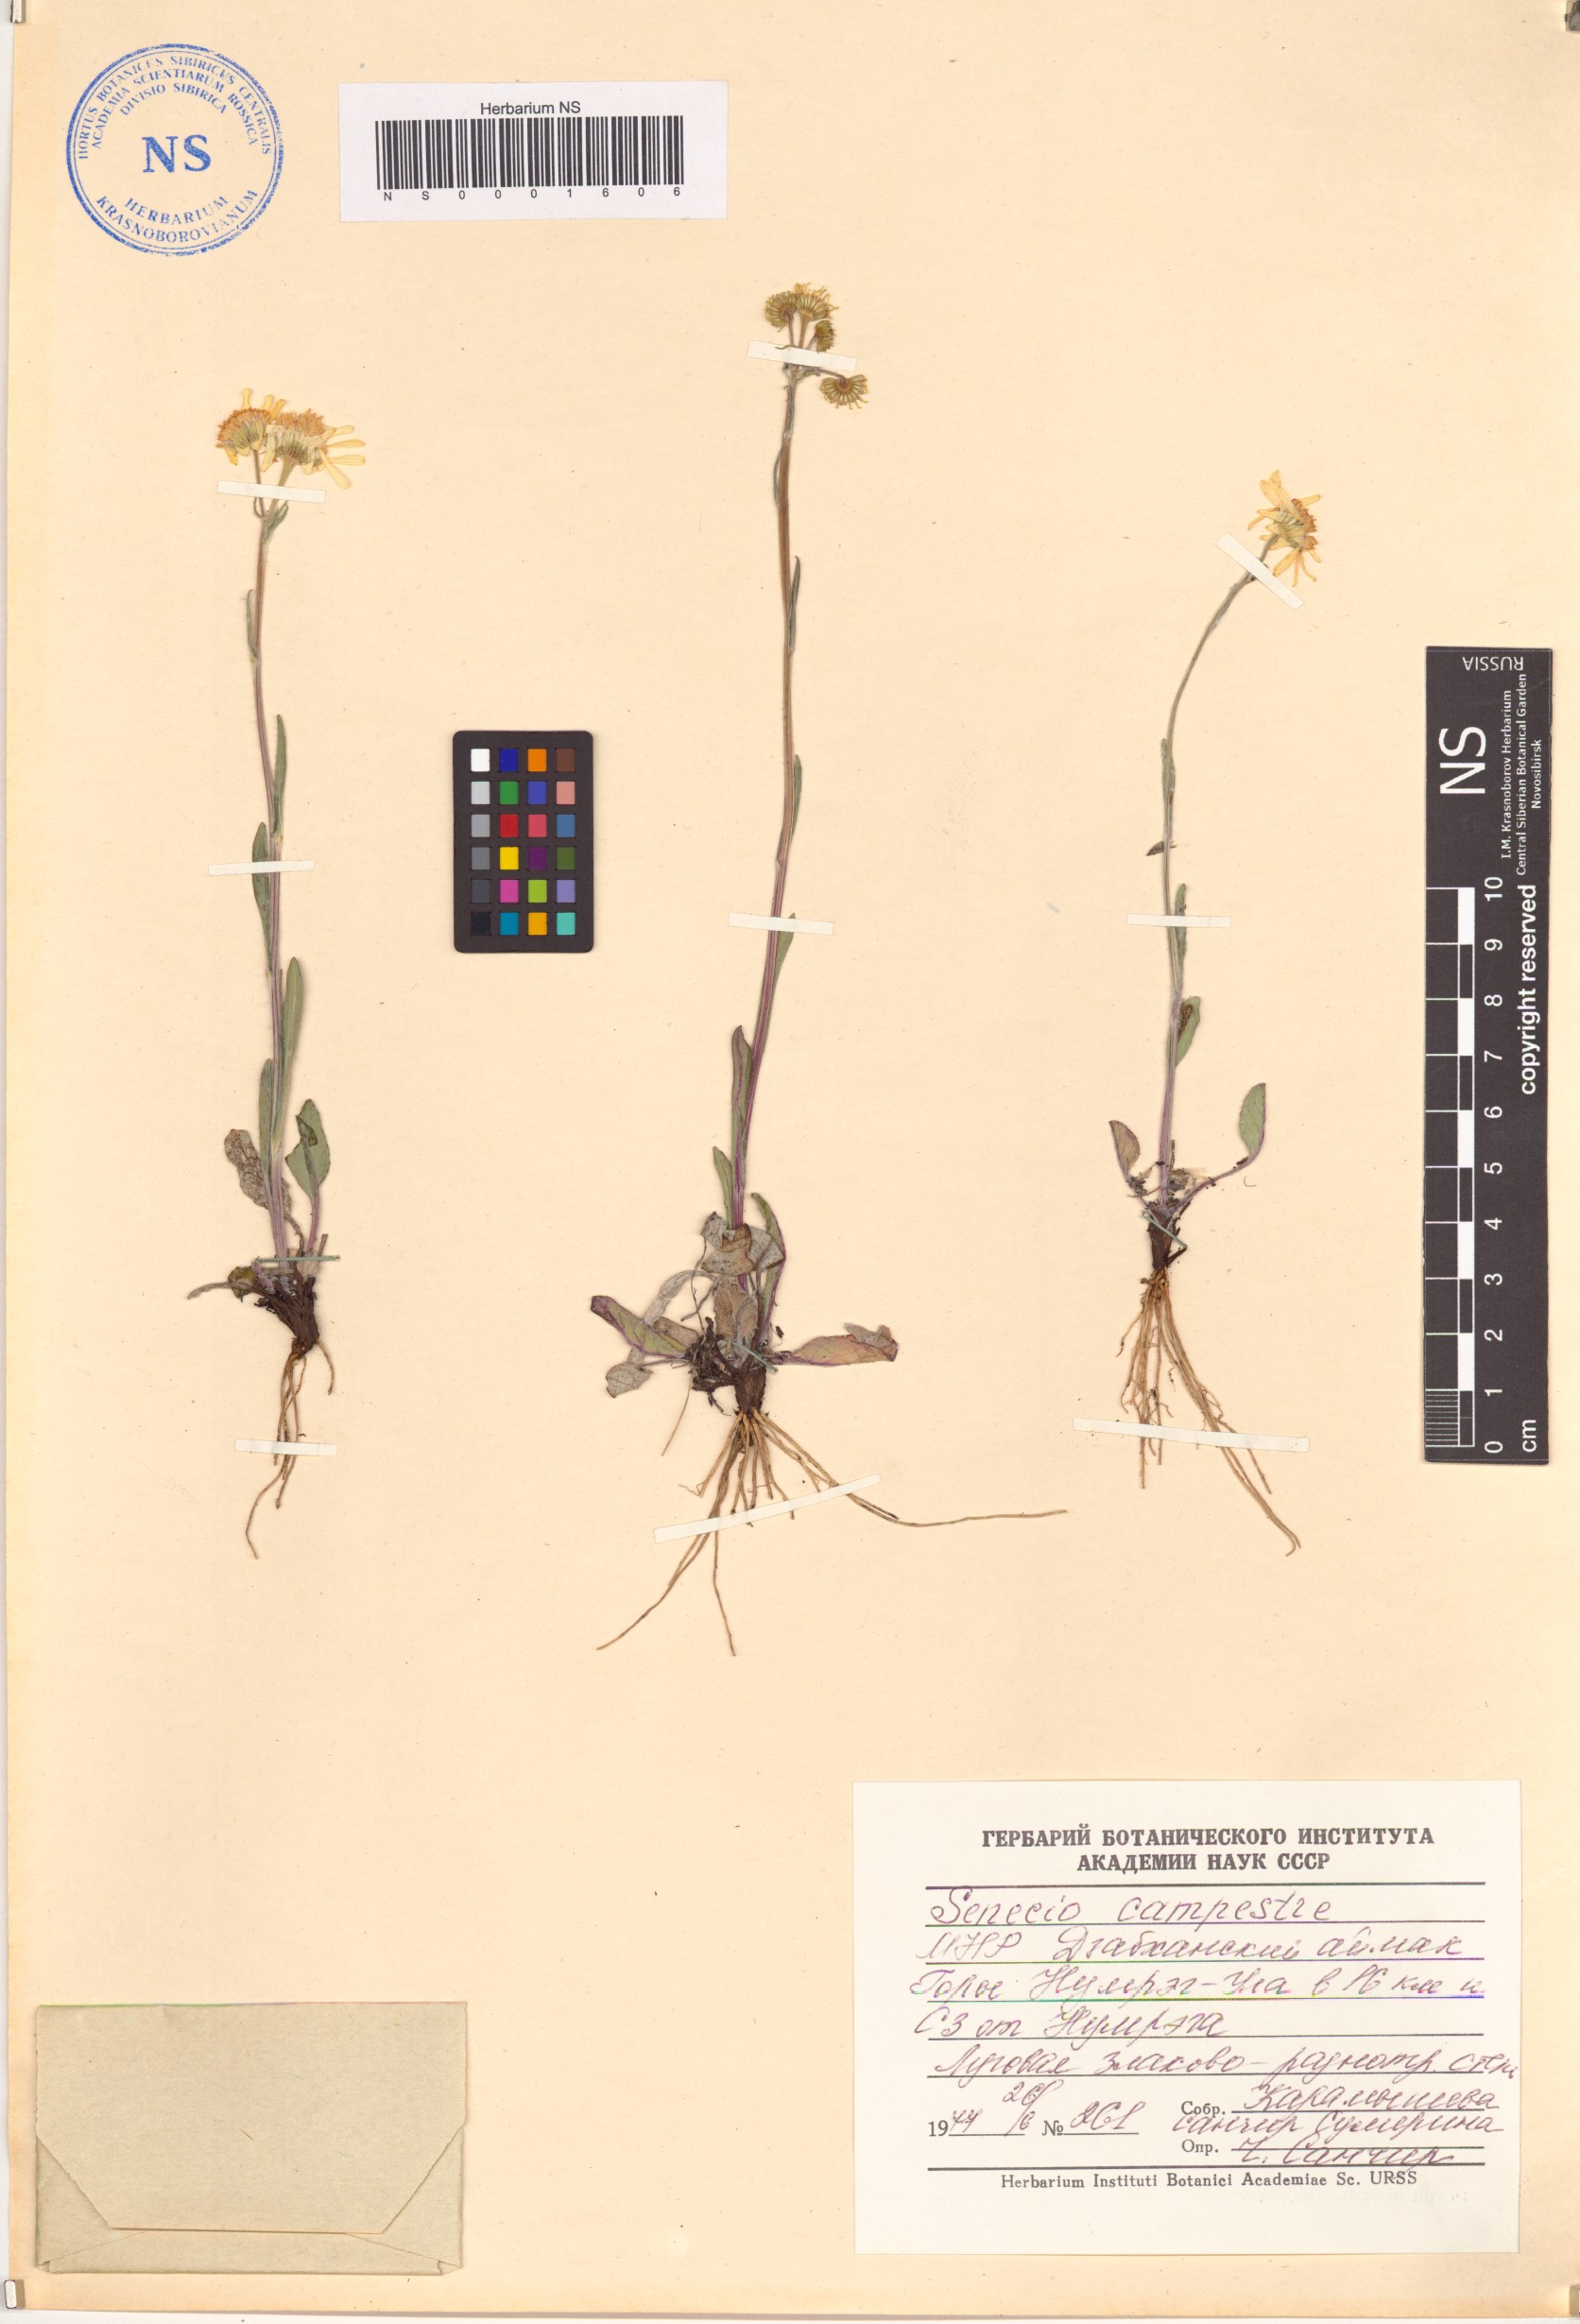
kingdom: Plantae
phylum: Tracheophyta
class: Magnoliopsida
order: Asterales
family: Asteraceae
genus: Tephroseris
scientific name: Tephroseris integrifolia
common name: Field fleawort
